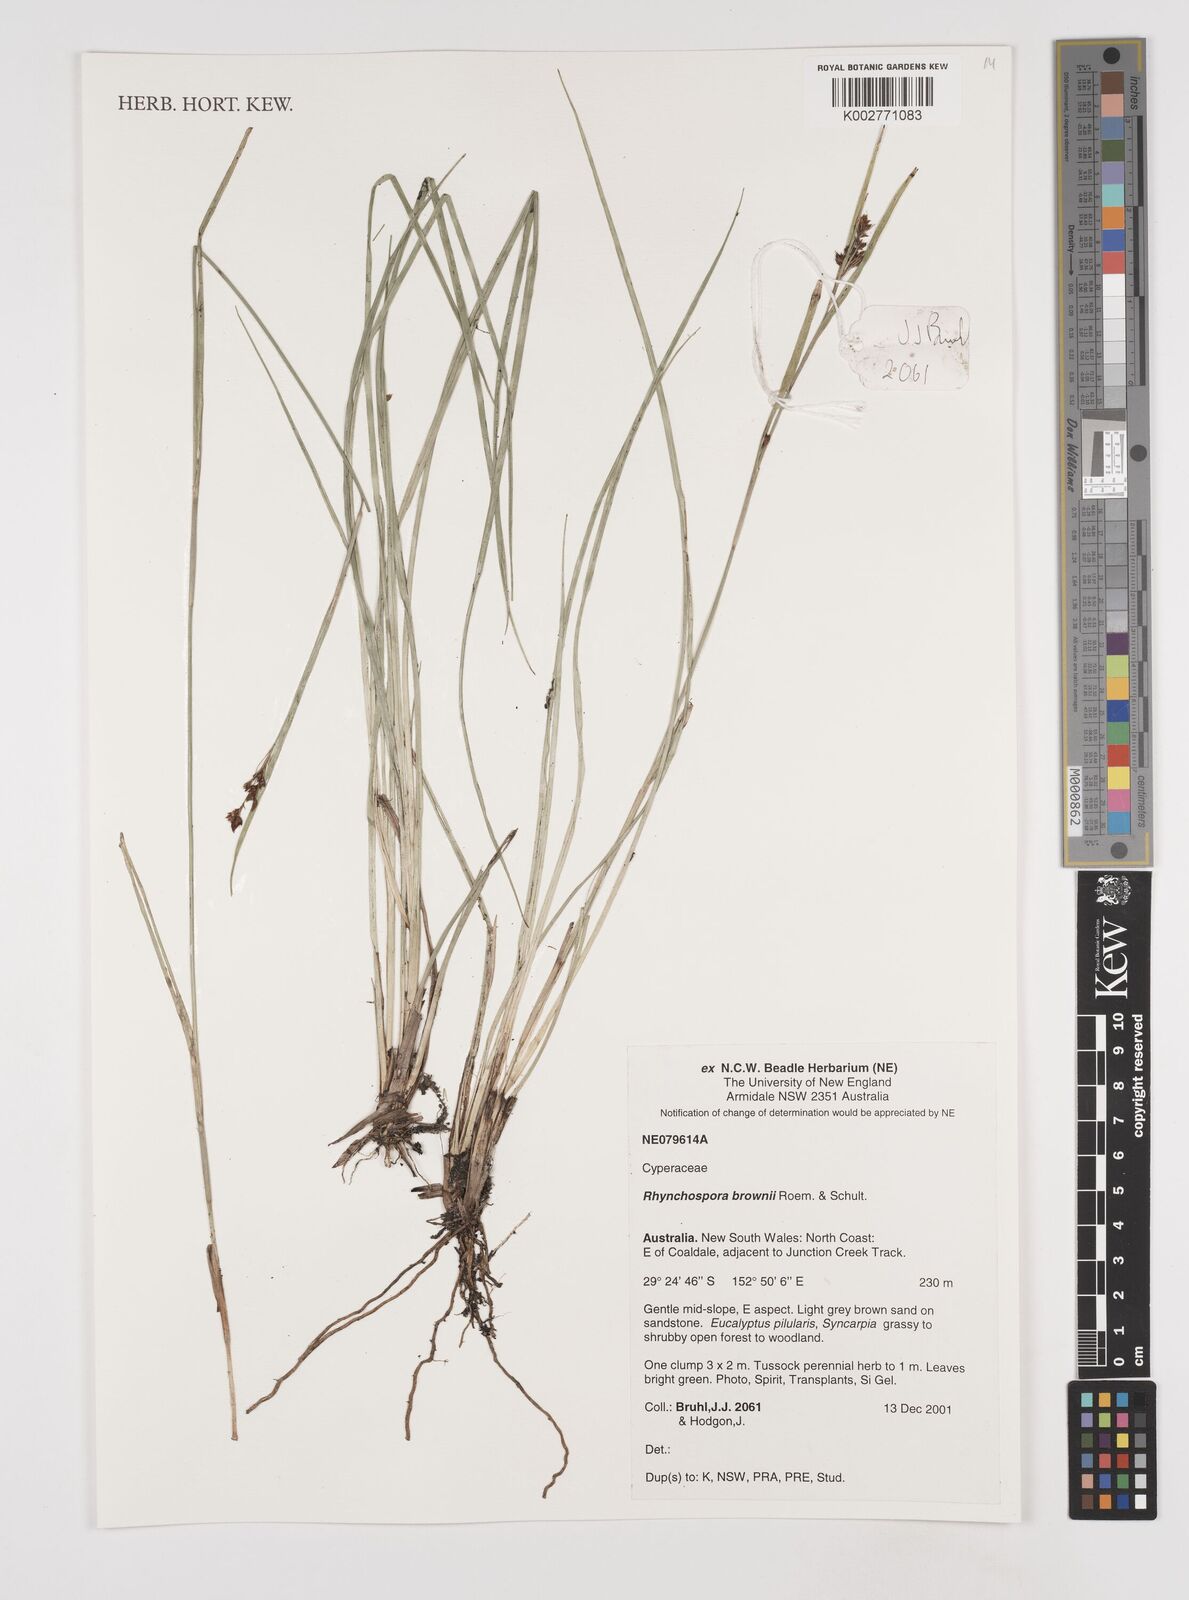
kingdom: Plantae
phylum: Tracheophyta
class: Liliopsida
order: Poales
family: Cyperaceae
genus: Rhynchospora
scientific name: Rhynchospora rugosa
